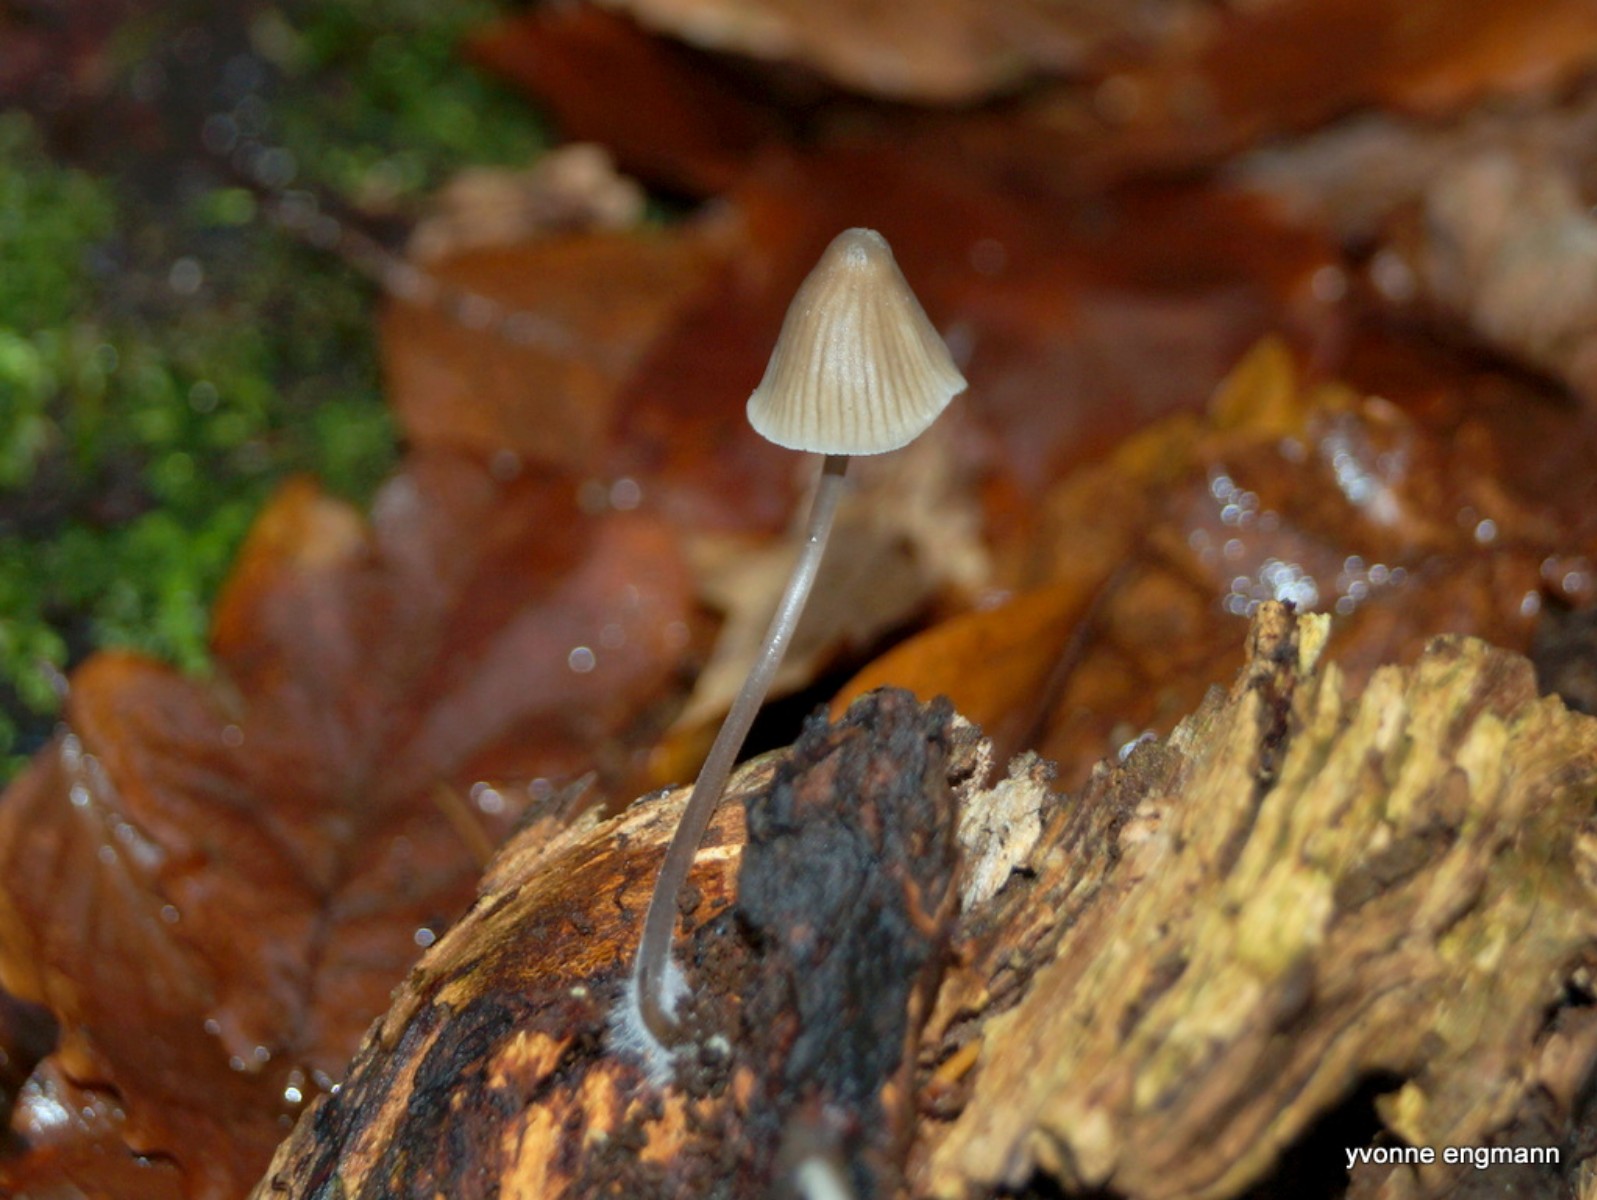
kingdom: Fungi
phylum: Basidiomycota
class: Agaricomycetes
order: Agaricales
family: Mycenaceae
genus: Mycena
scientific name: Mycena vitilis
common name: blankstokket huesvamp
